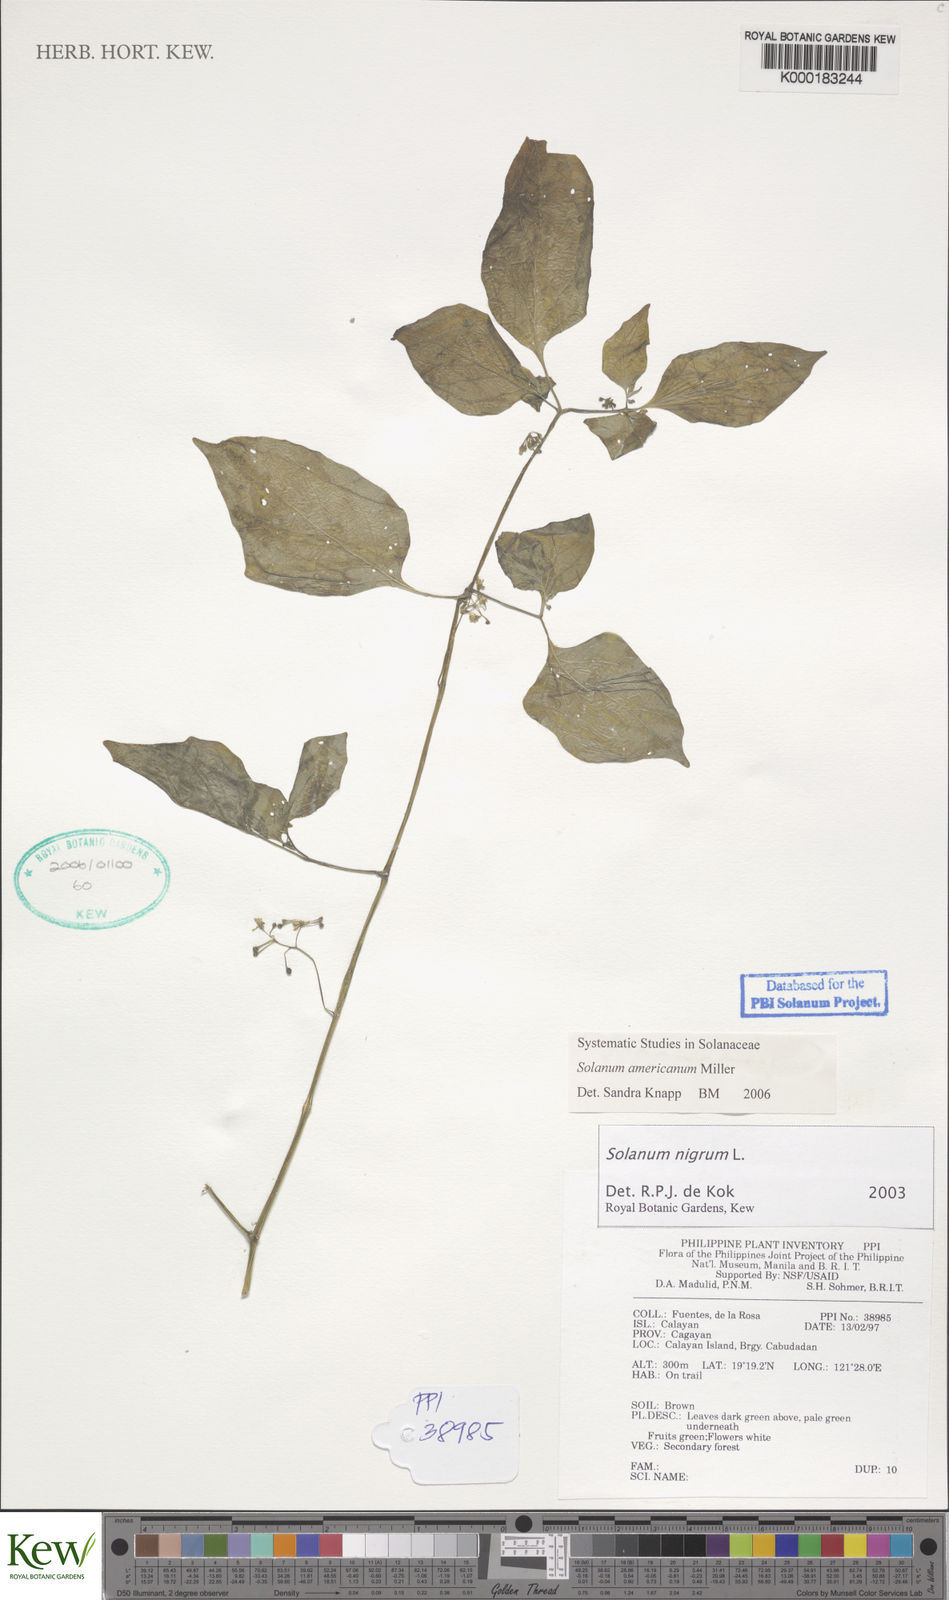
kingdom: Plantae
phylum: Tracheophyta
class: Magnoliopsida
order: Solanales
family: Solanaceae
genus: Solanum
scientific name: Solanum nigrum
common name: Black nightshade
